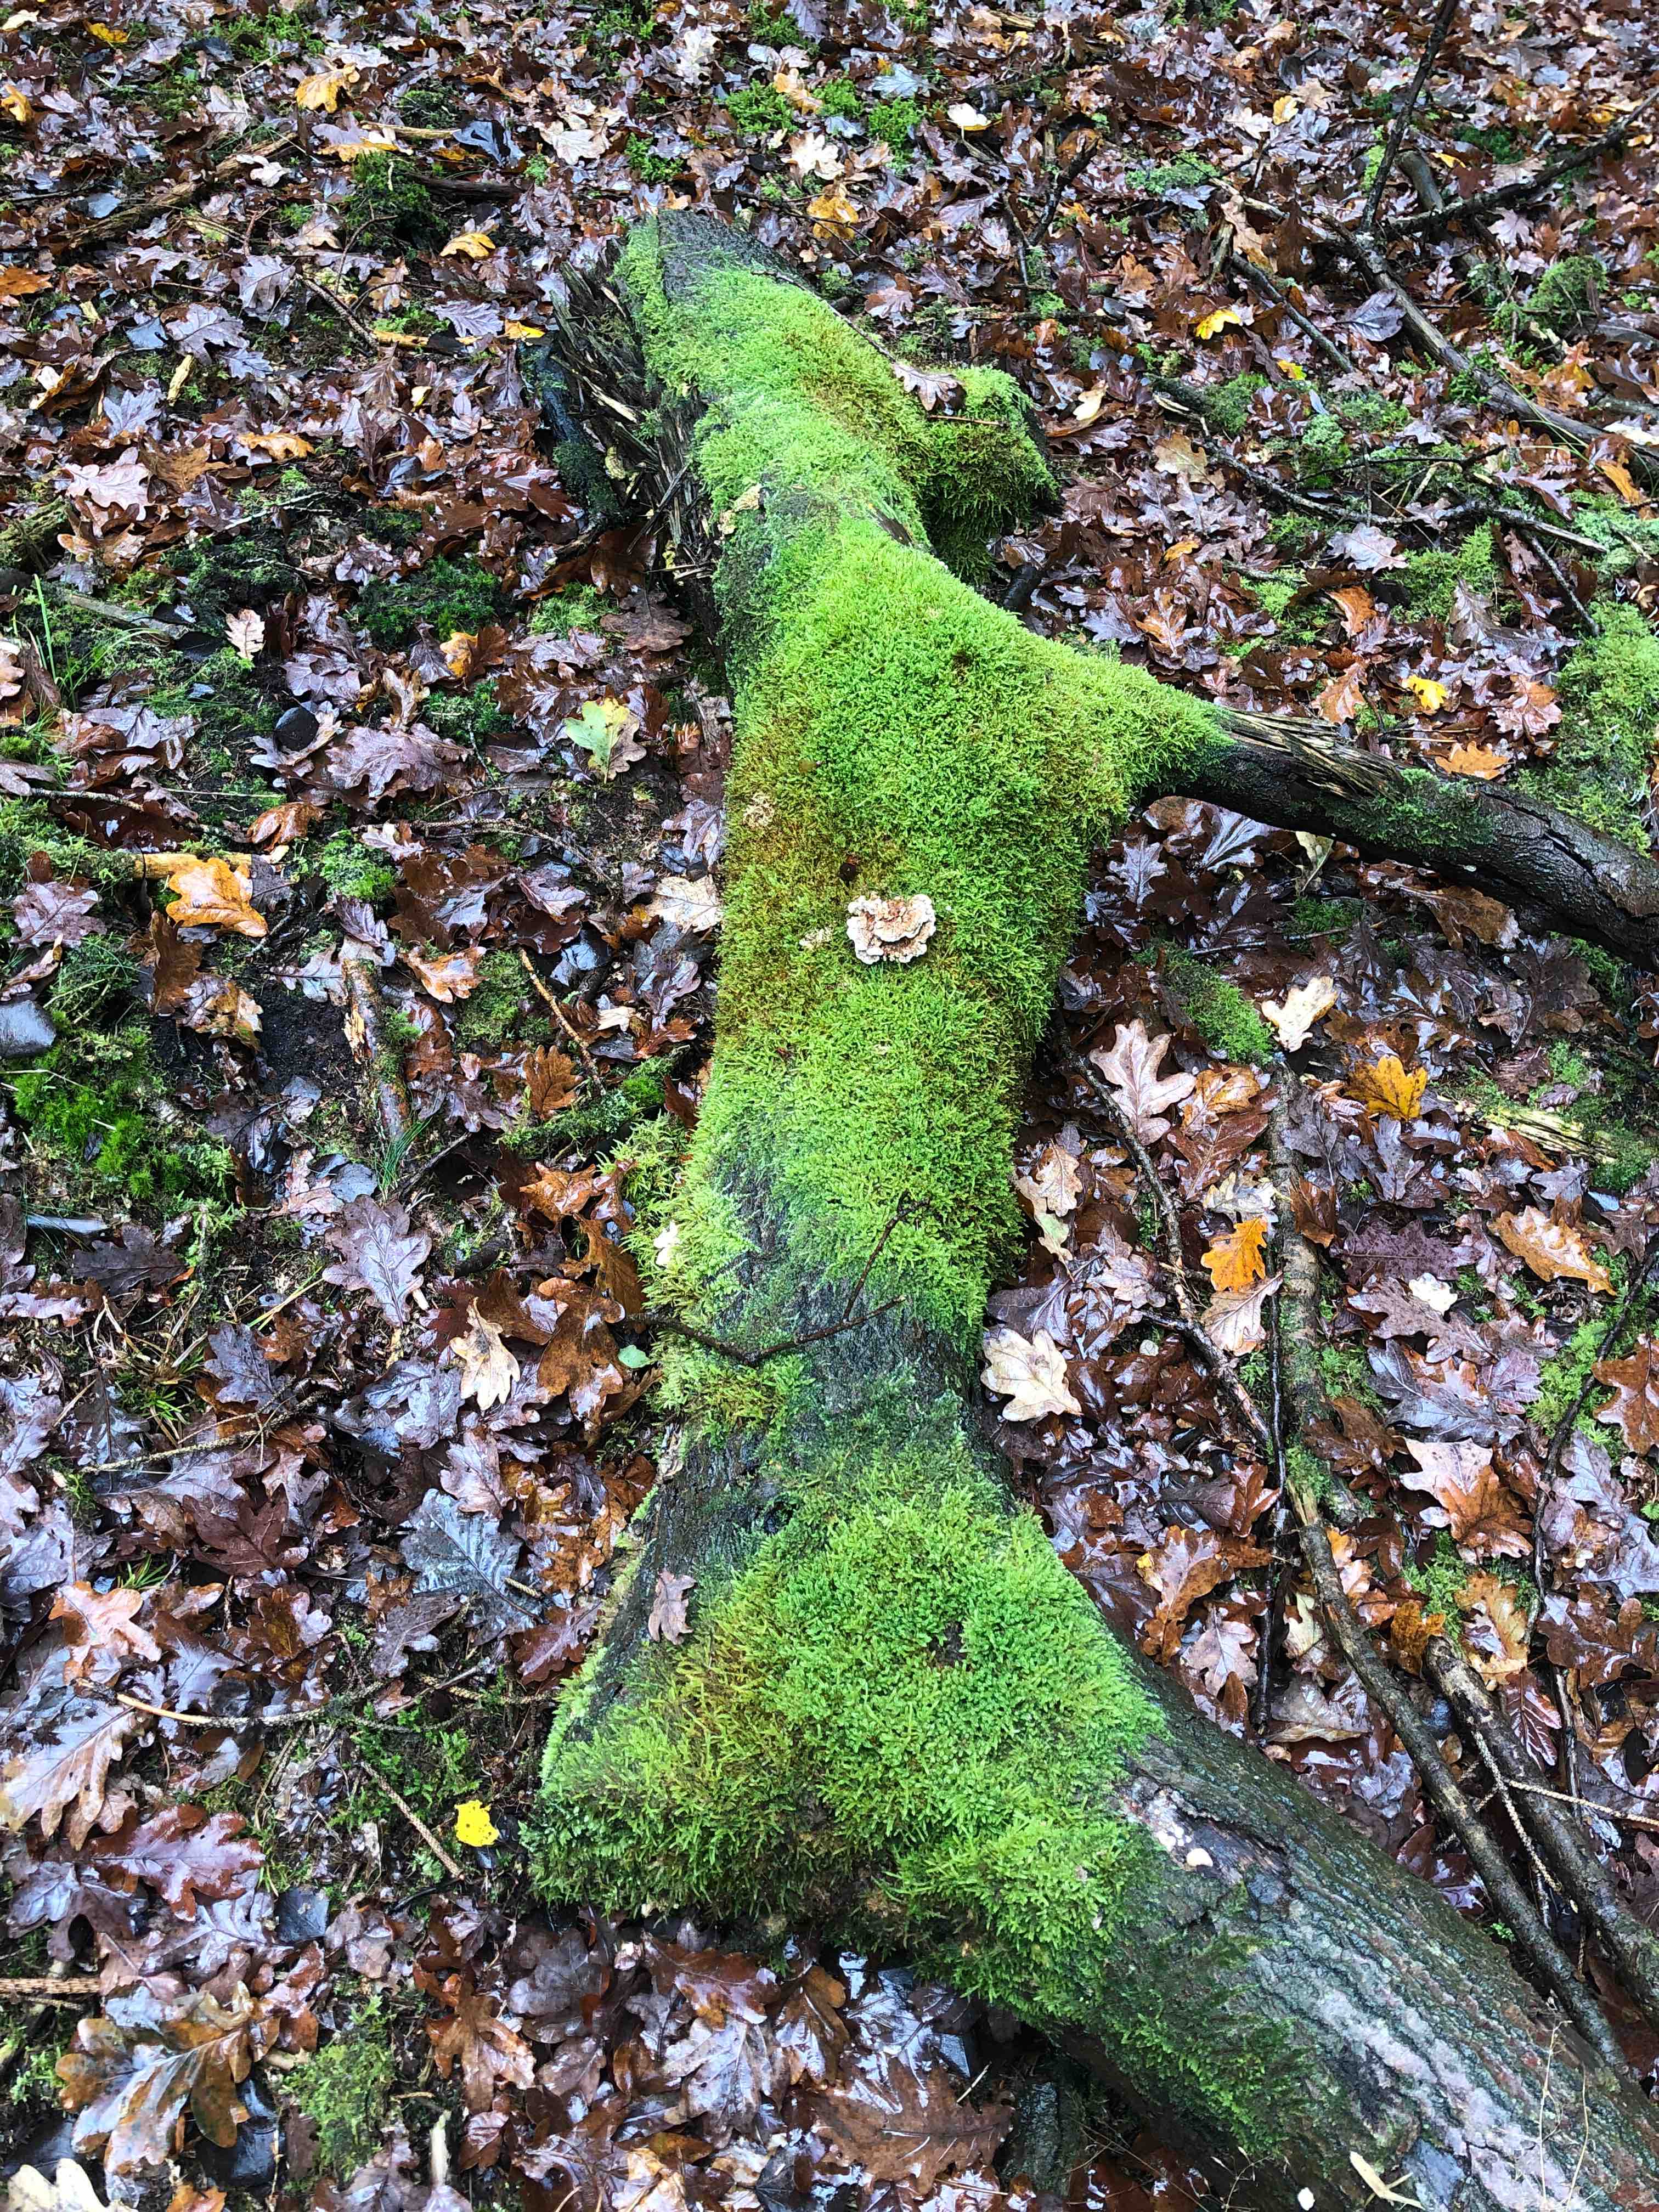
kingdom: Fungi
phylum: Basidiomycota
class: Agaricomycetes
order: Polyporales
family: Polyporaceae
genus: Trametes
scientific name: Trametes
